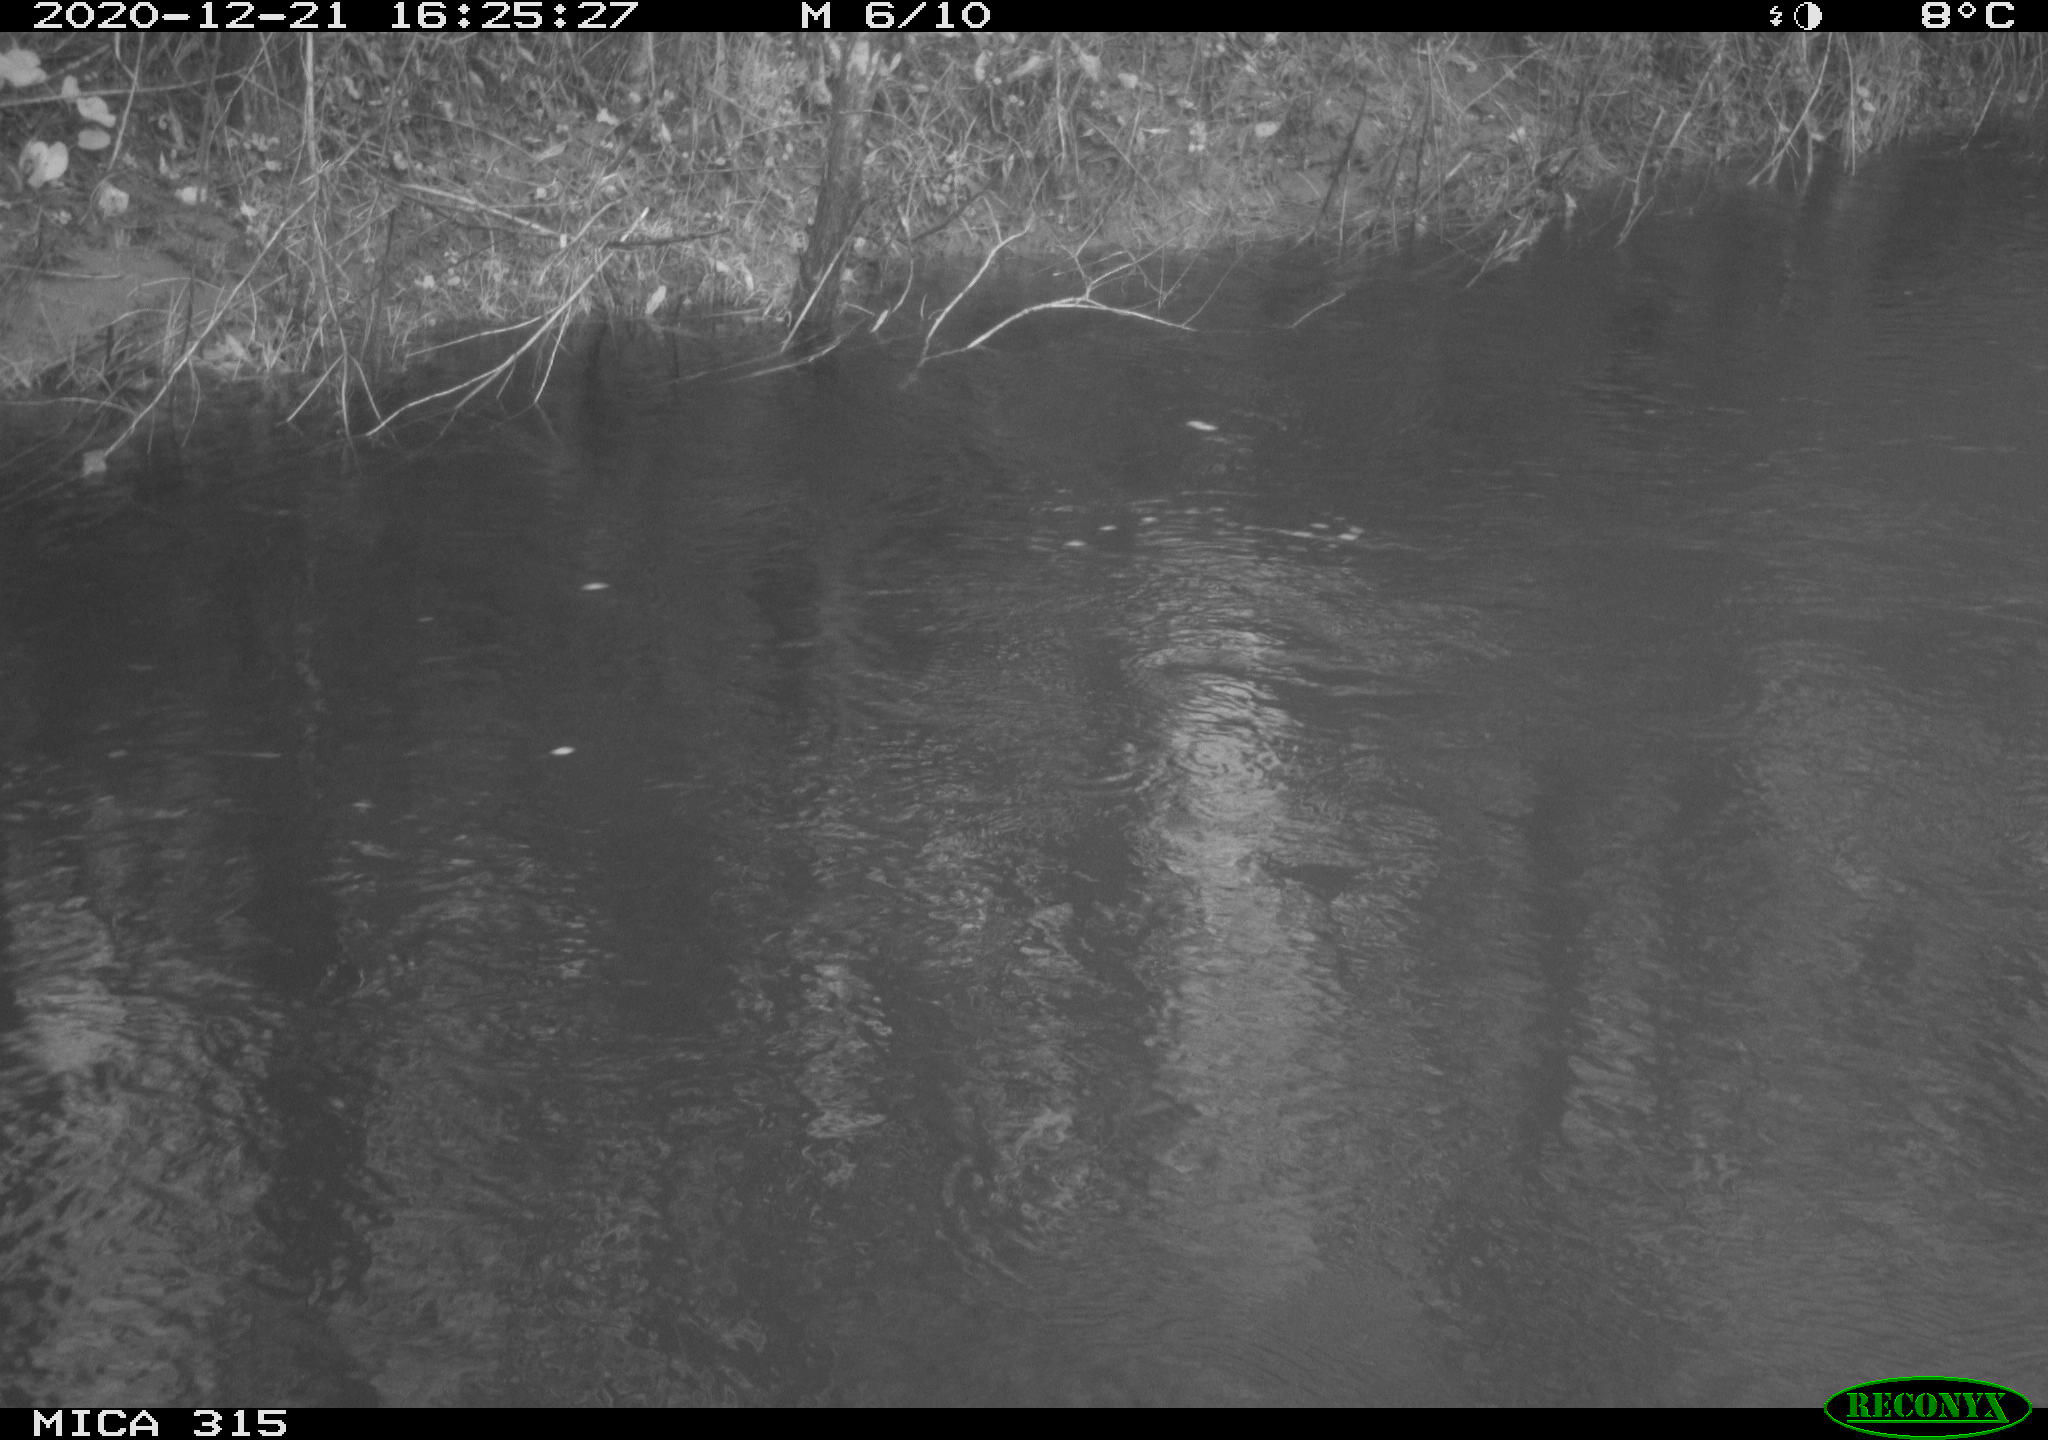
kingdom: Animalia
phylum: Chordata
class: Aves
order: Gruiformes
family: Rallidae
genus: Gallinula
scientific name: Gallinula chloropus
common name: Common moorhen
